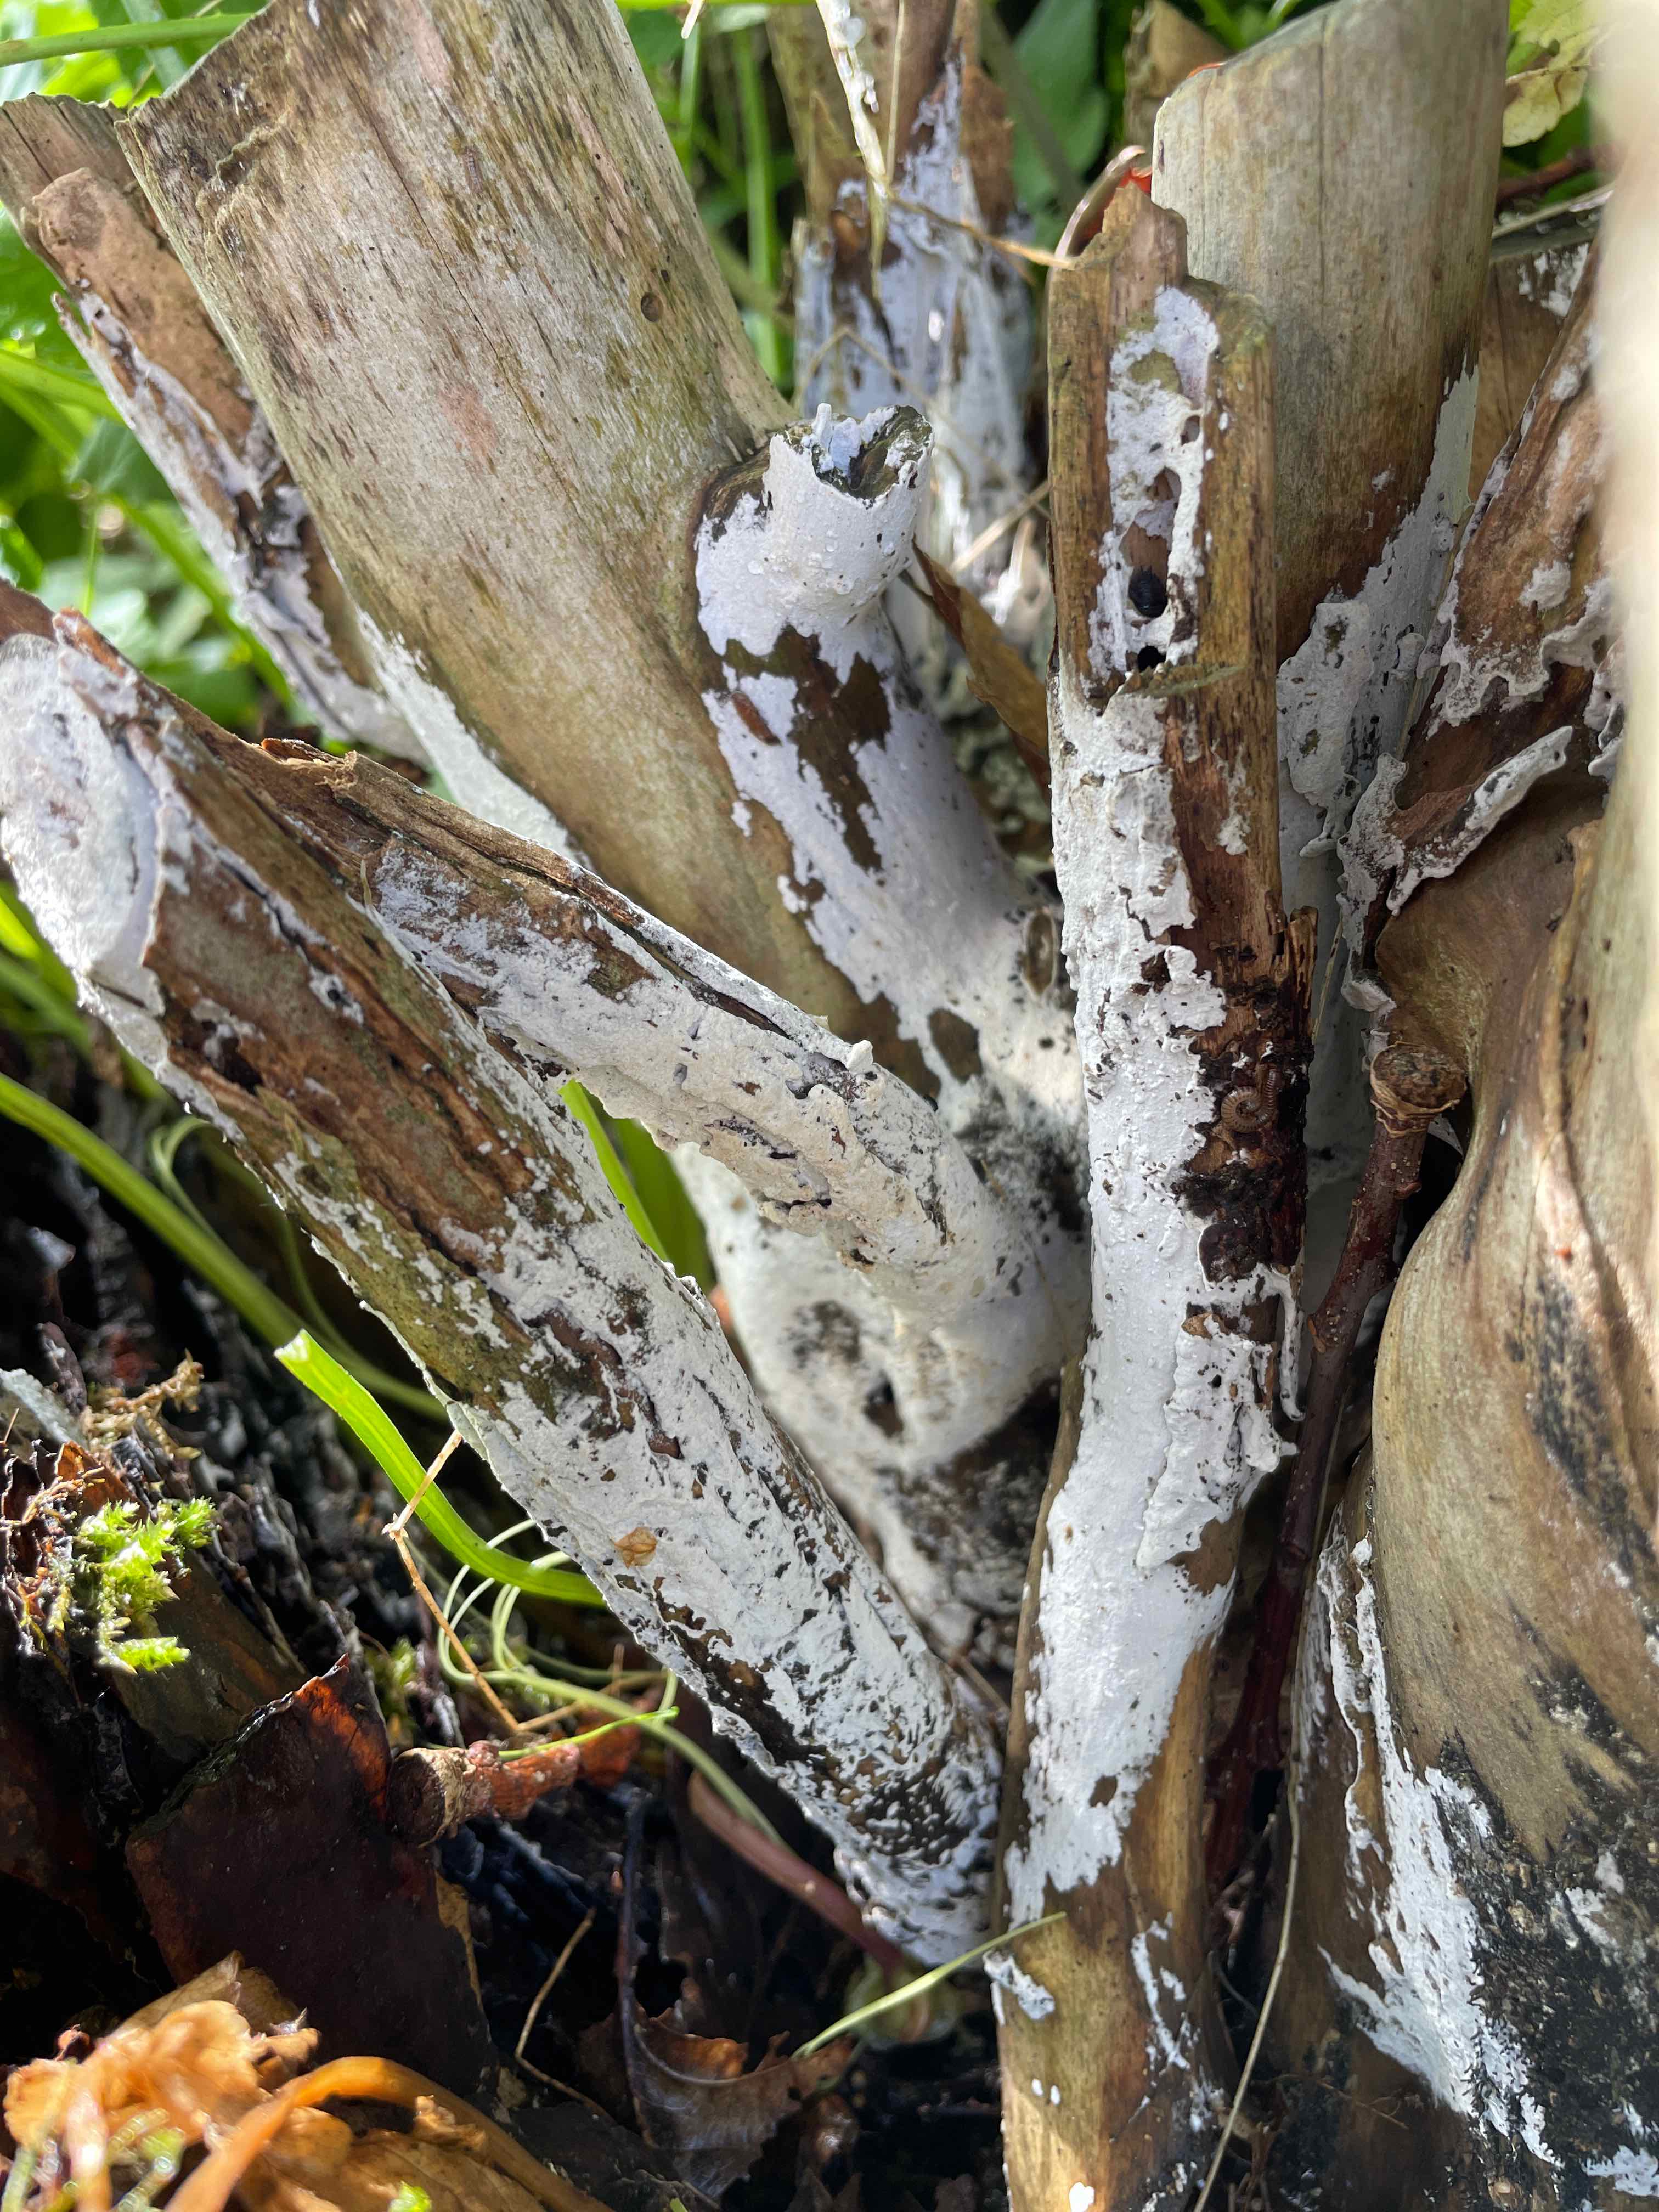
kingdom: Fungi
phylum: Basidiomycota
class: Agaricomycetes
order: Corticiales
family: Corticiaceae
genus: Lyomyces
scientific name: Lyomyces sambuci
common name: almindelig hyldehinde
